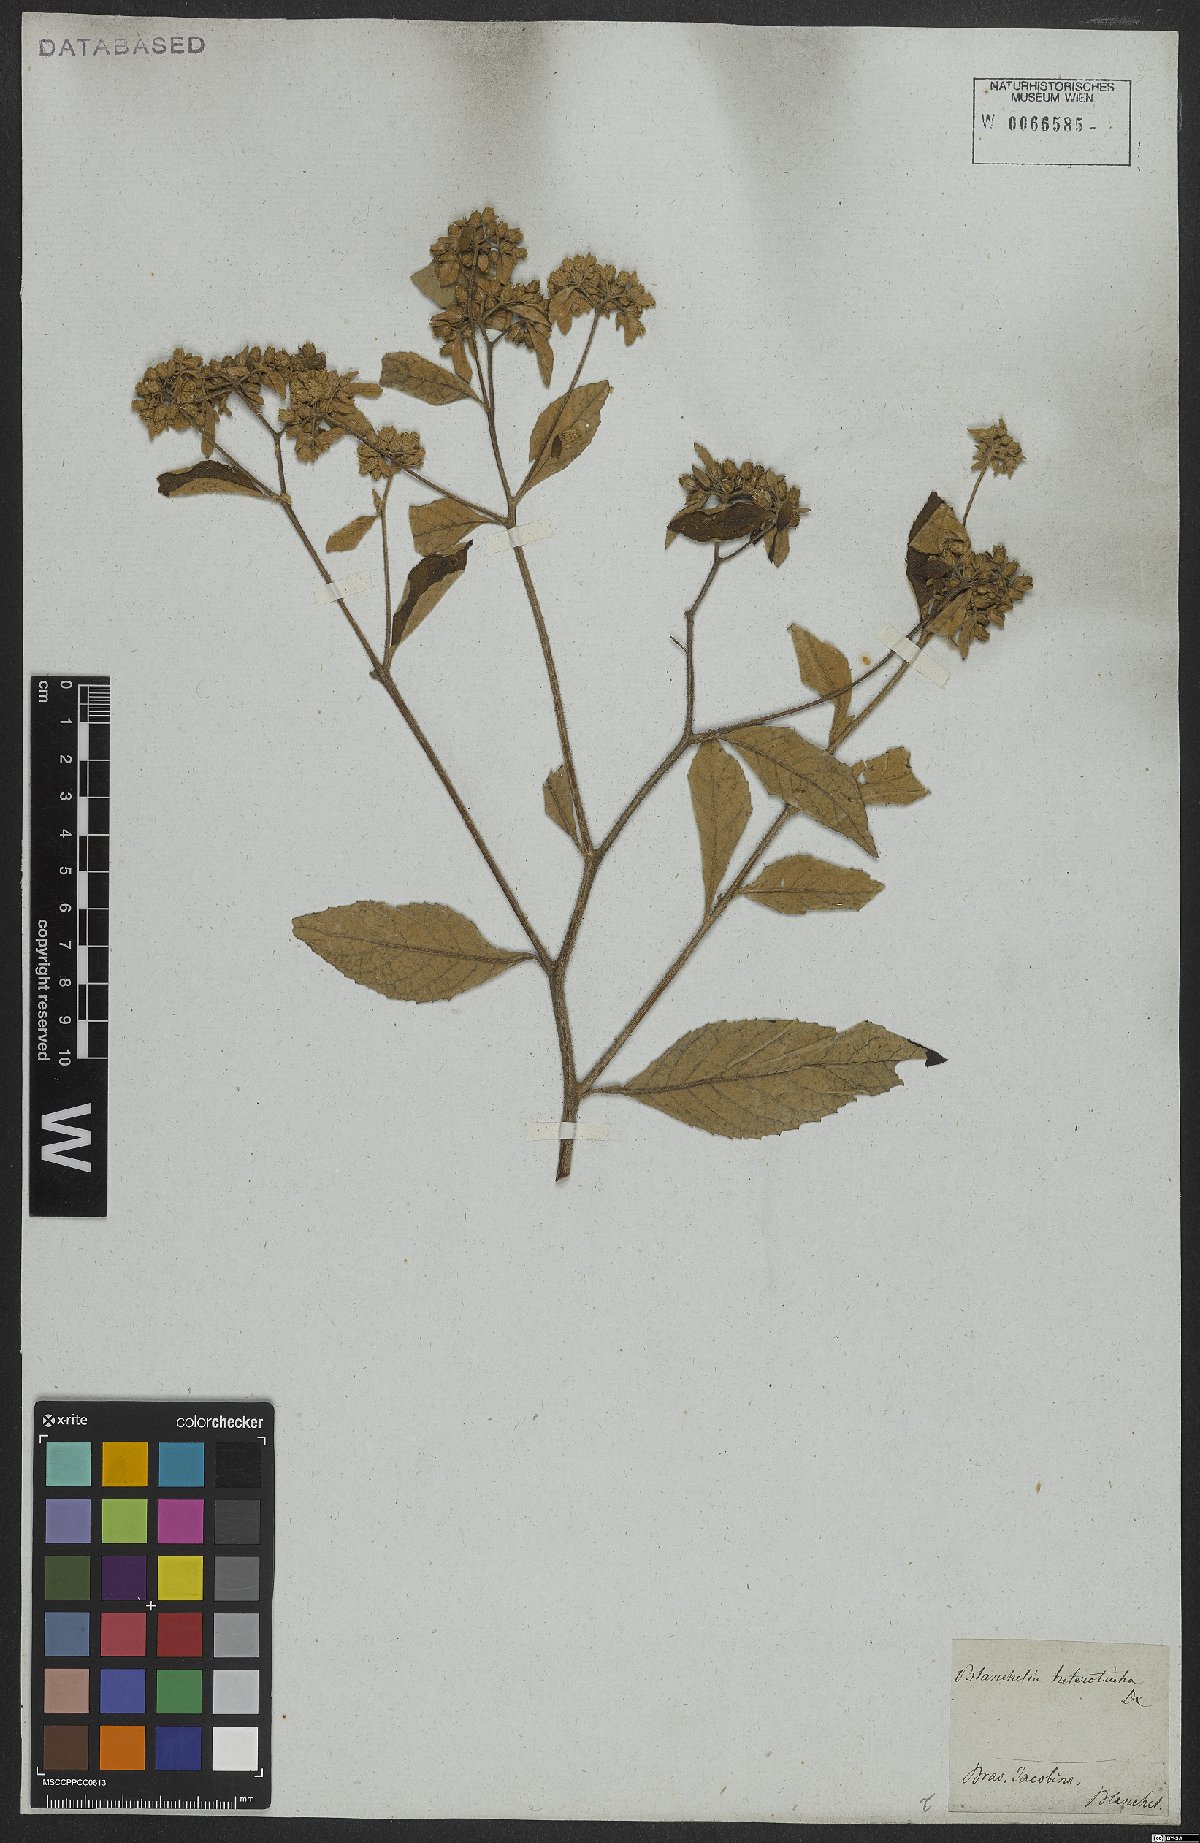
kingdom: Plantae
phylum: Tracheophyta
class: Magnoliopsida
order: Asterales
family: Asteraceae
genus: Blanchetia
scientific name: Blanchetia heterotricha
